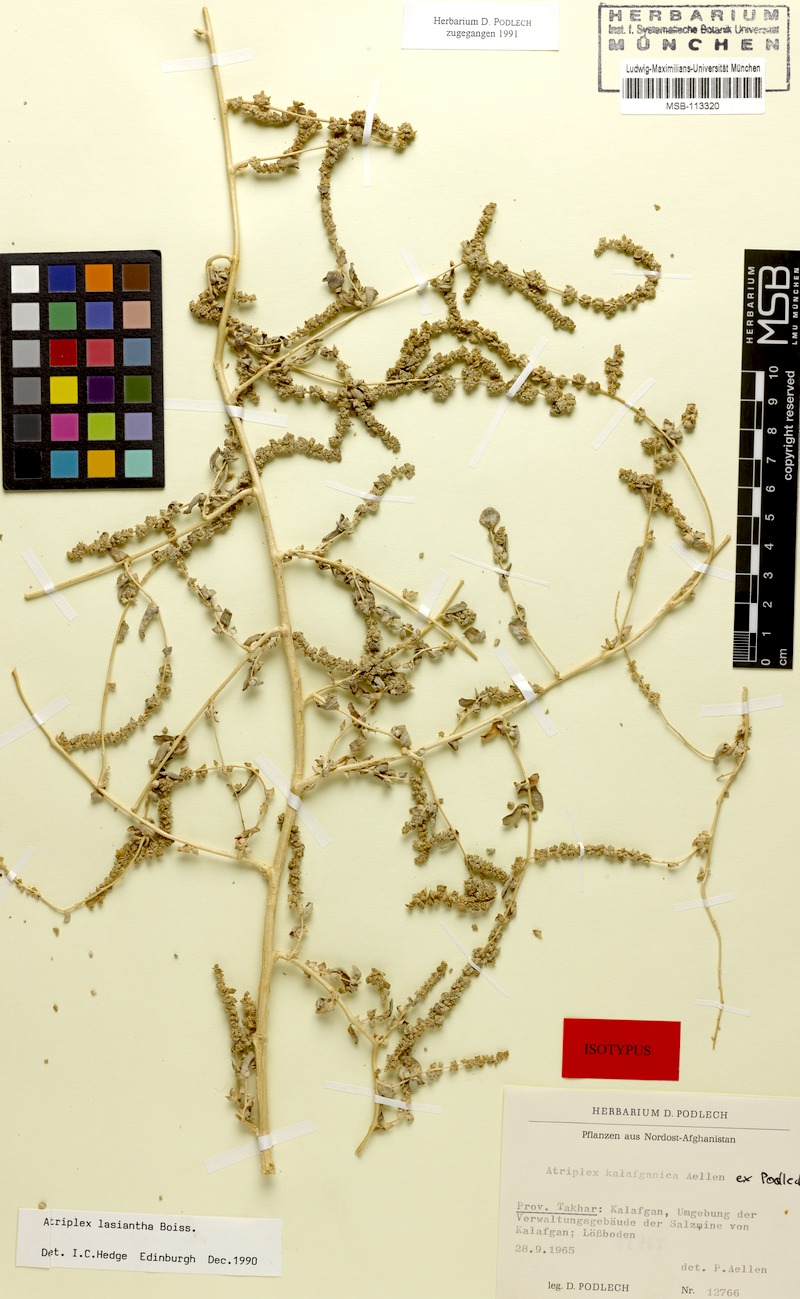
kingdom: Plantae
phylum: Tracheophyta
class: Magnoliopsida
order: Caryophyllales
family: Amaranthaceae
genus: Atriplex
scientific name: Atriplex lasiantha
